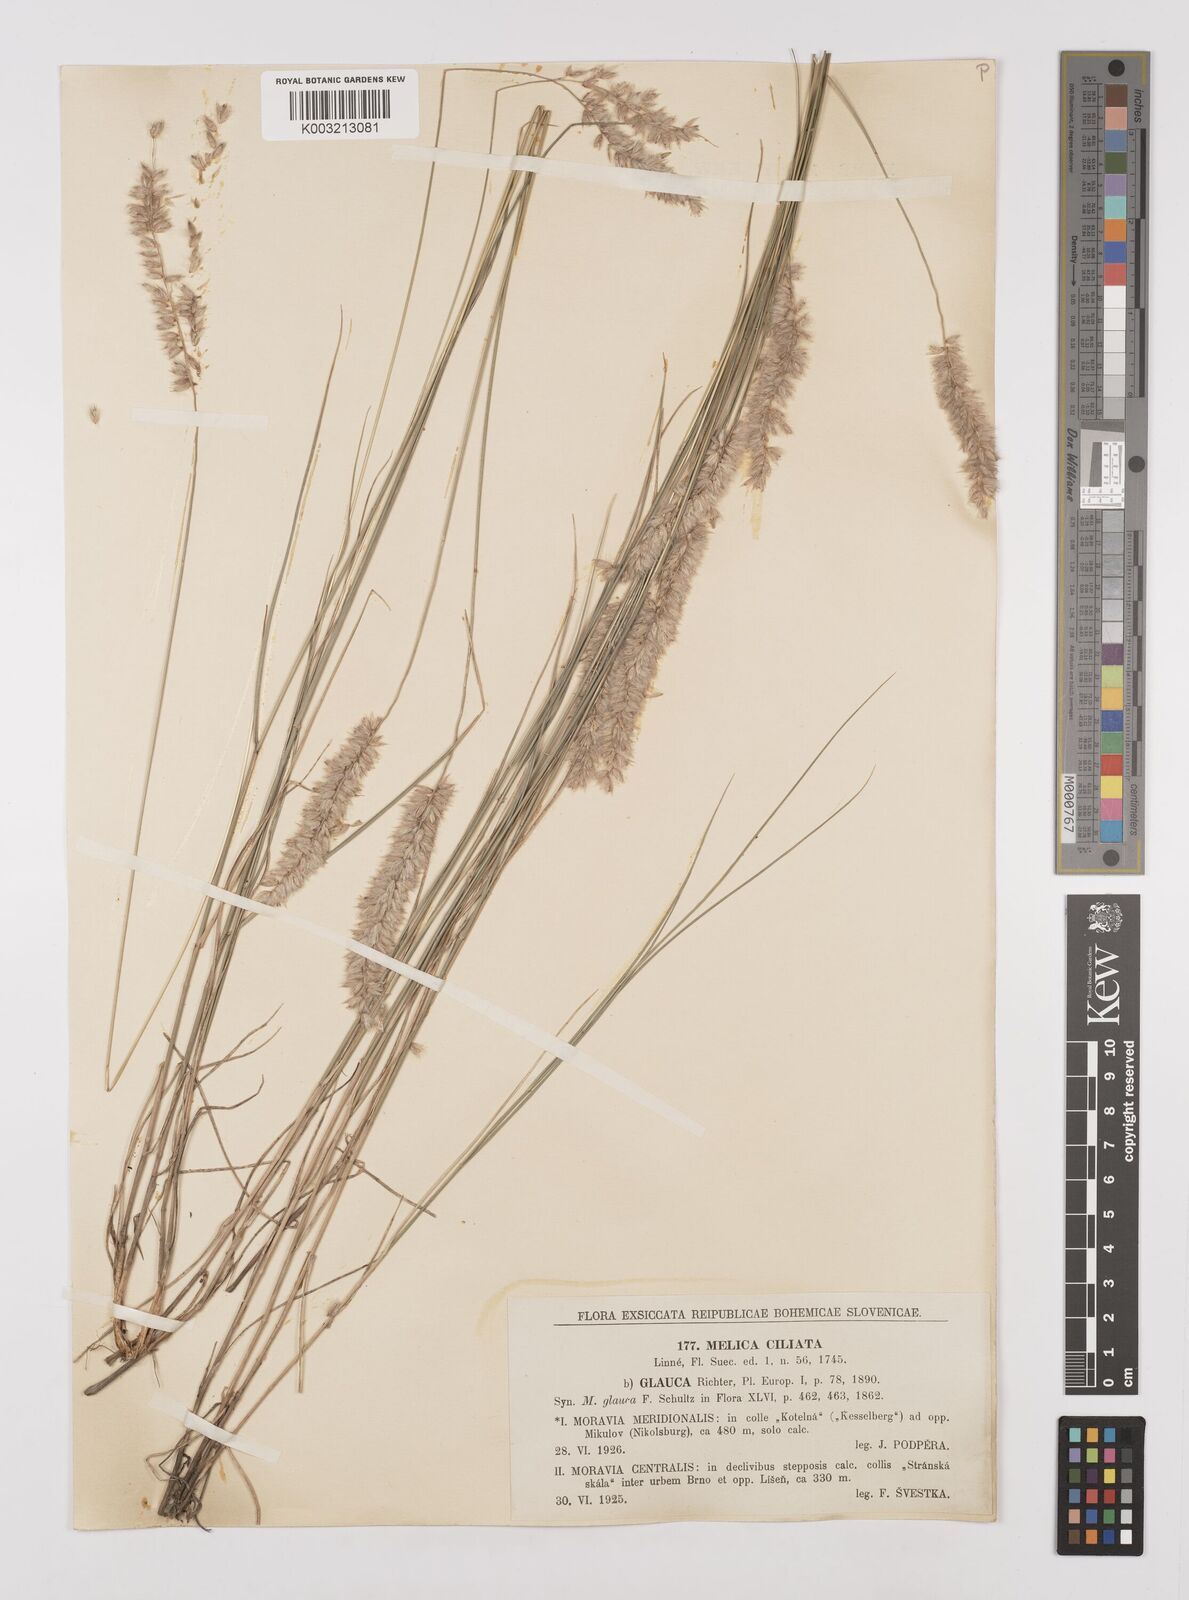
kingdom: Plantae
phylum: Tracheophyta
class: Liliopsida
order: Poales
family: Poaceae
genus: Melica
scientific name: Melica ciliata
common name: Hairy melicgrass
